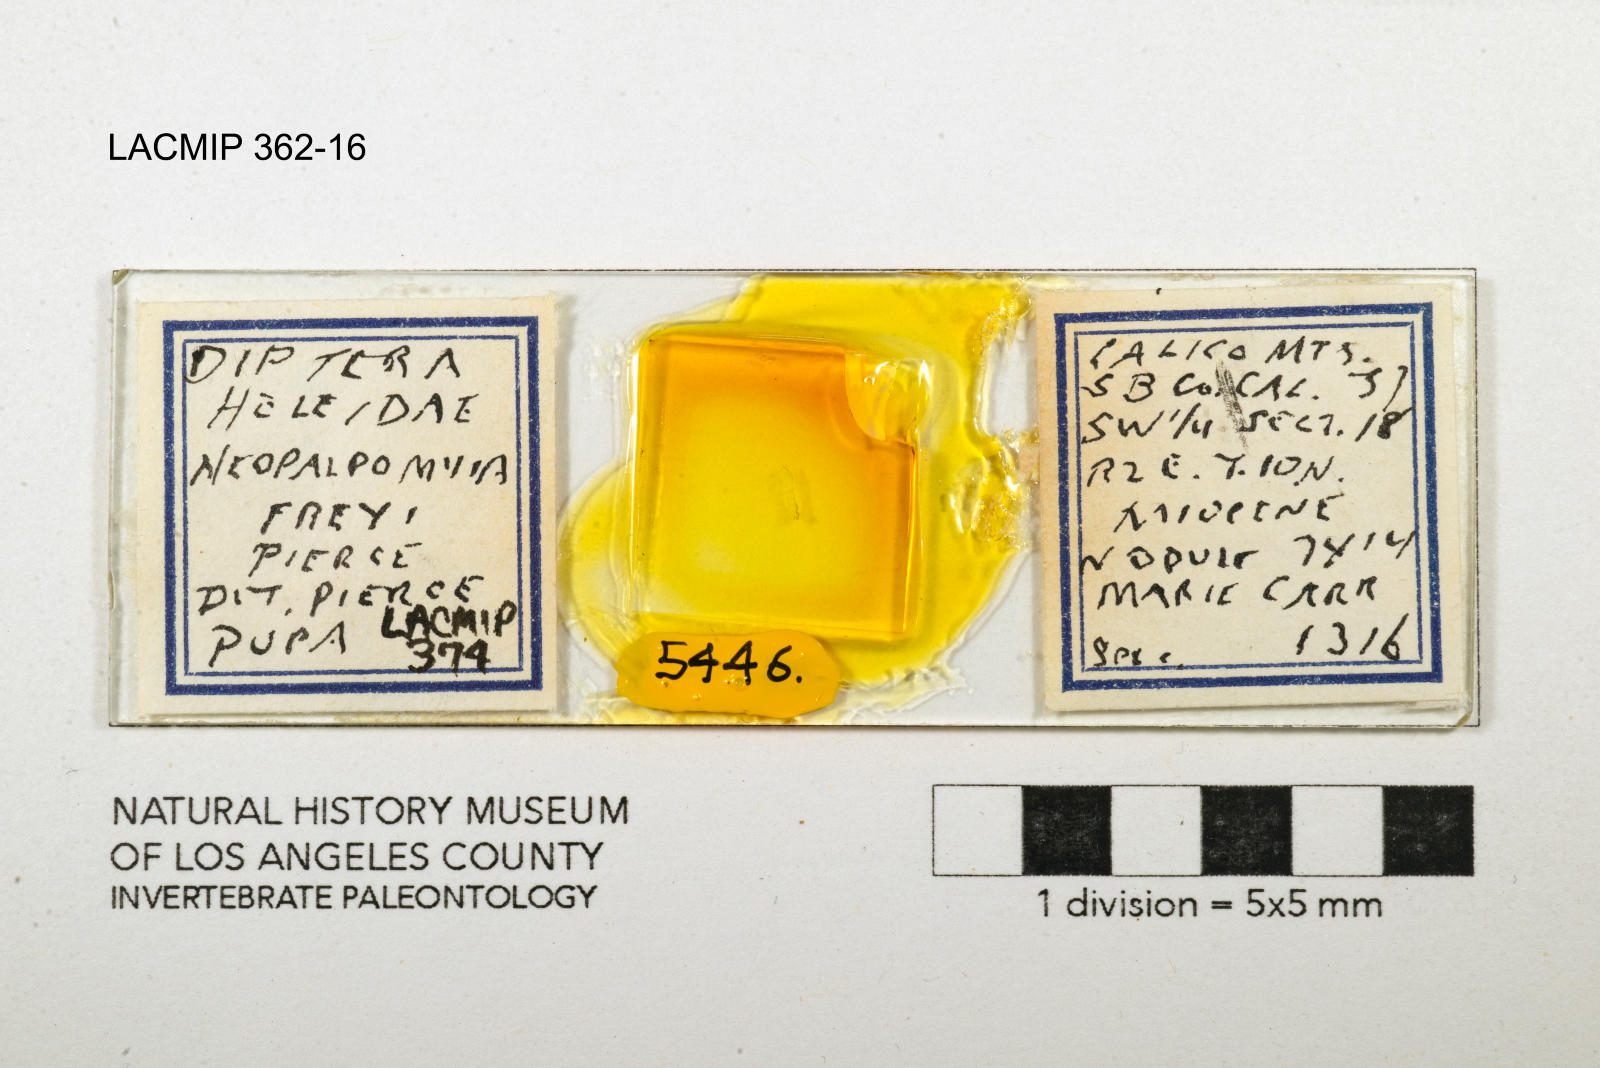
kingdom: Animalia
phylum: Arthropoda
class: Insecta
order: Diptera
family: Ceratopogonidae
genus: Palpomyia
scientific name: Palpomyia freyi
